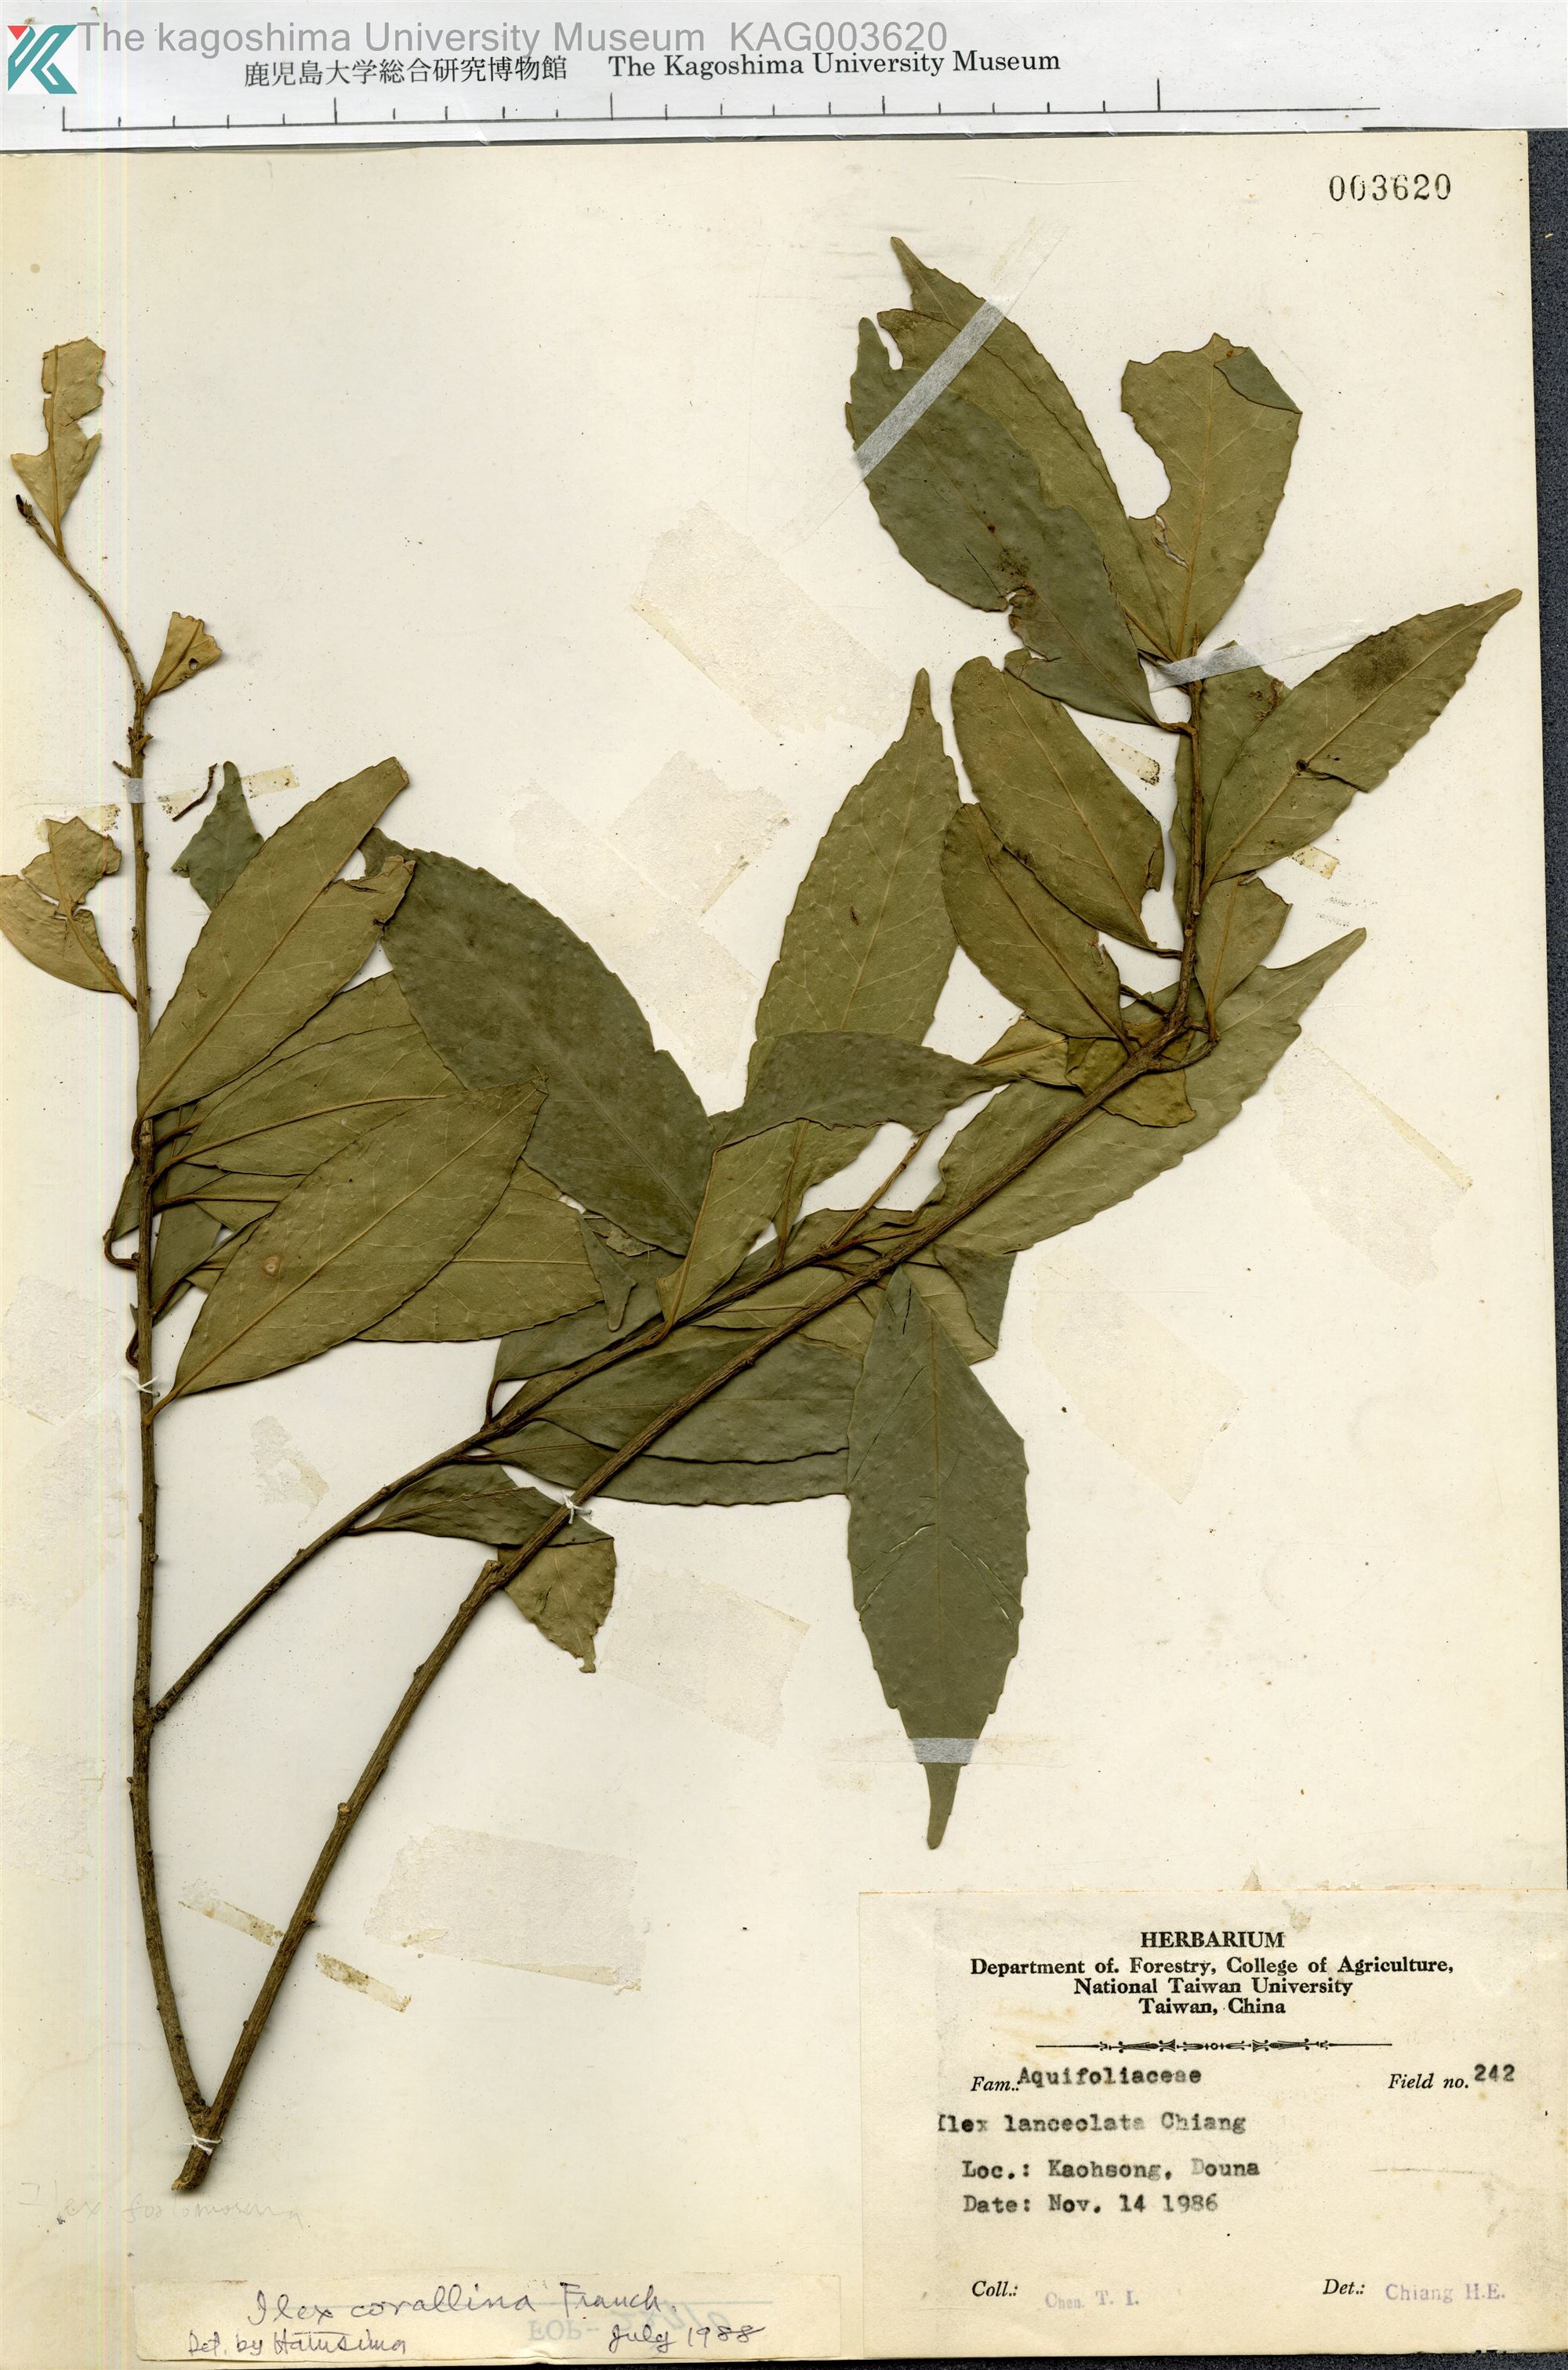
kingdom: Plantae
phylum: Tracheophyta
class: Magnoliopsida
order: Aquifoliales
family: Aquifoliaceae
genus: Ilex
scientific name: Ilex corallina
